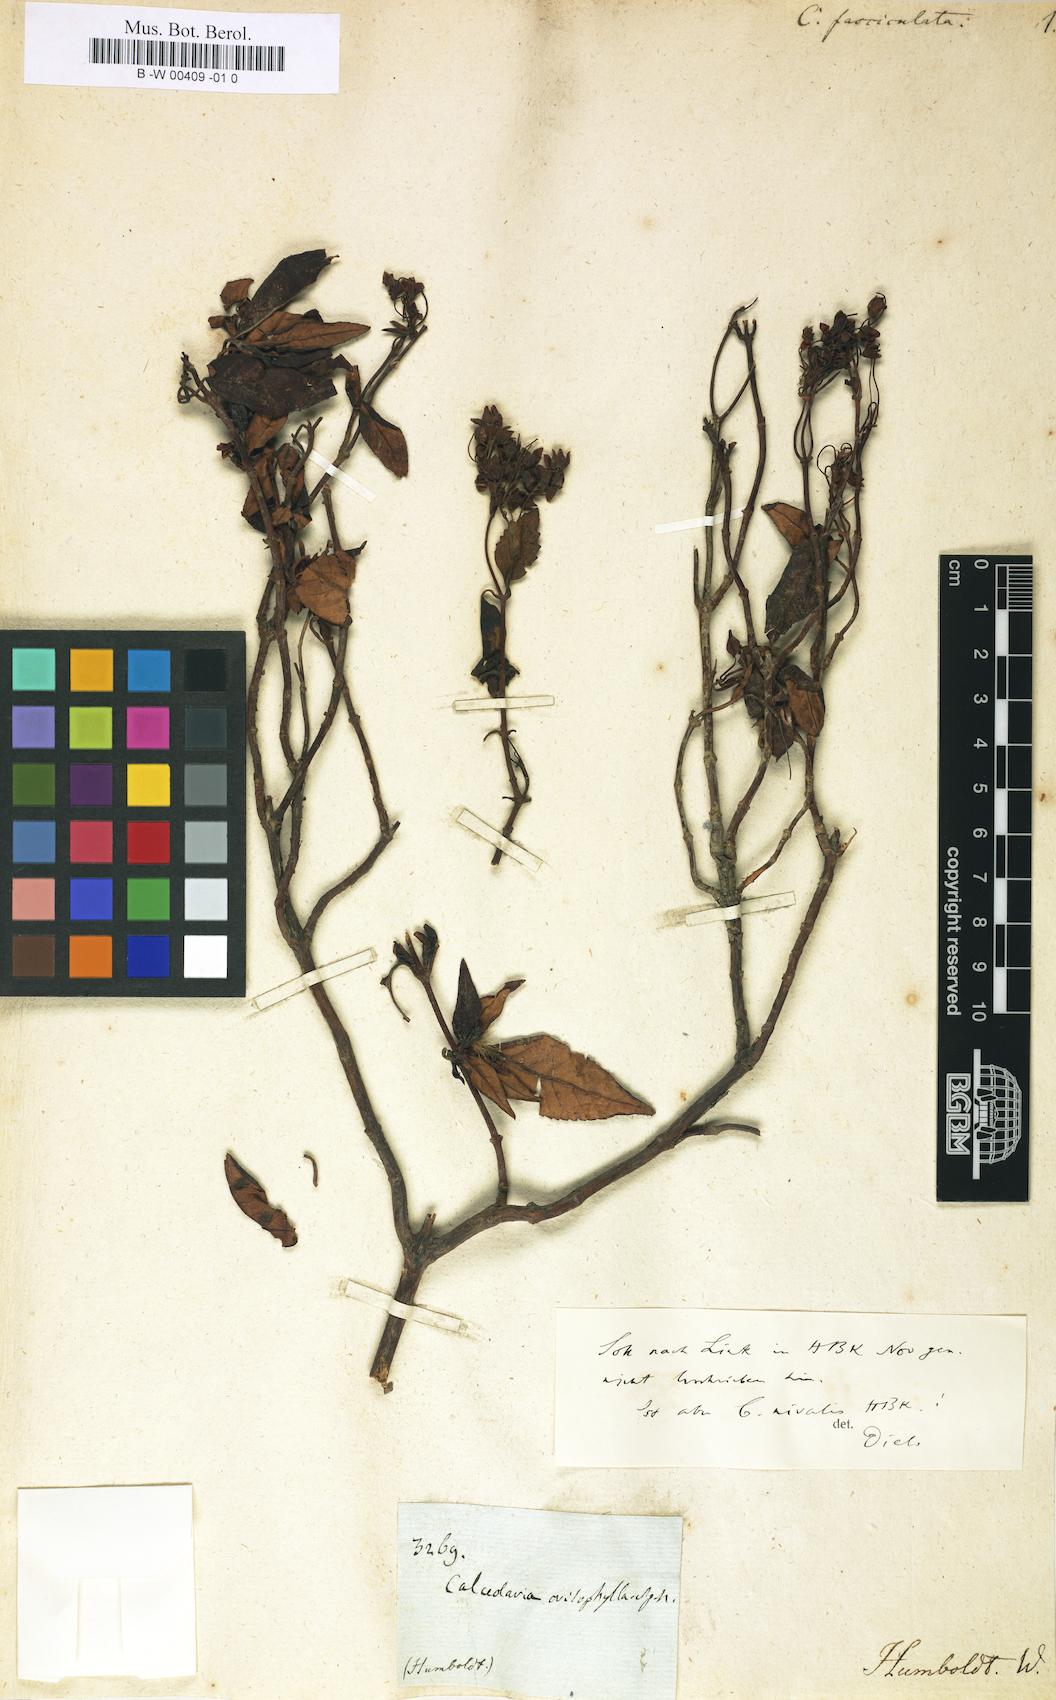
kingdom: Plantae
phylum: Tracheophyta
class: Magnoliopsida
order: Lamiales
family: Calceolariaceae
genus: Calceolaria
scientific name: Calceolaria nivalis
